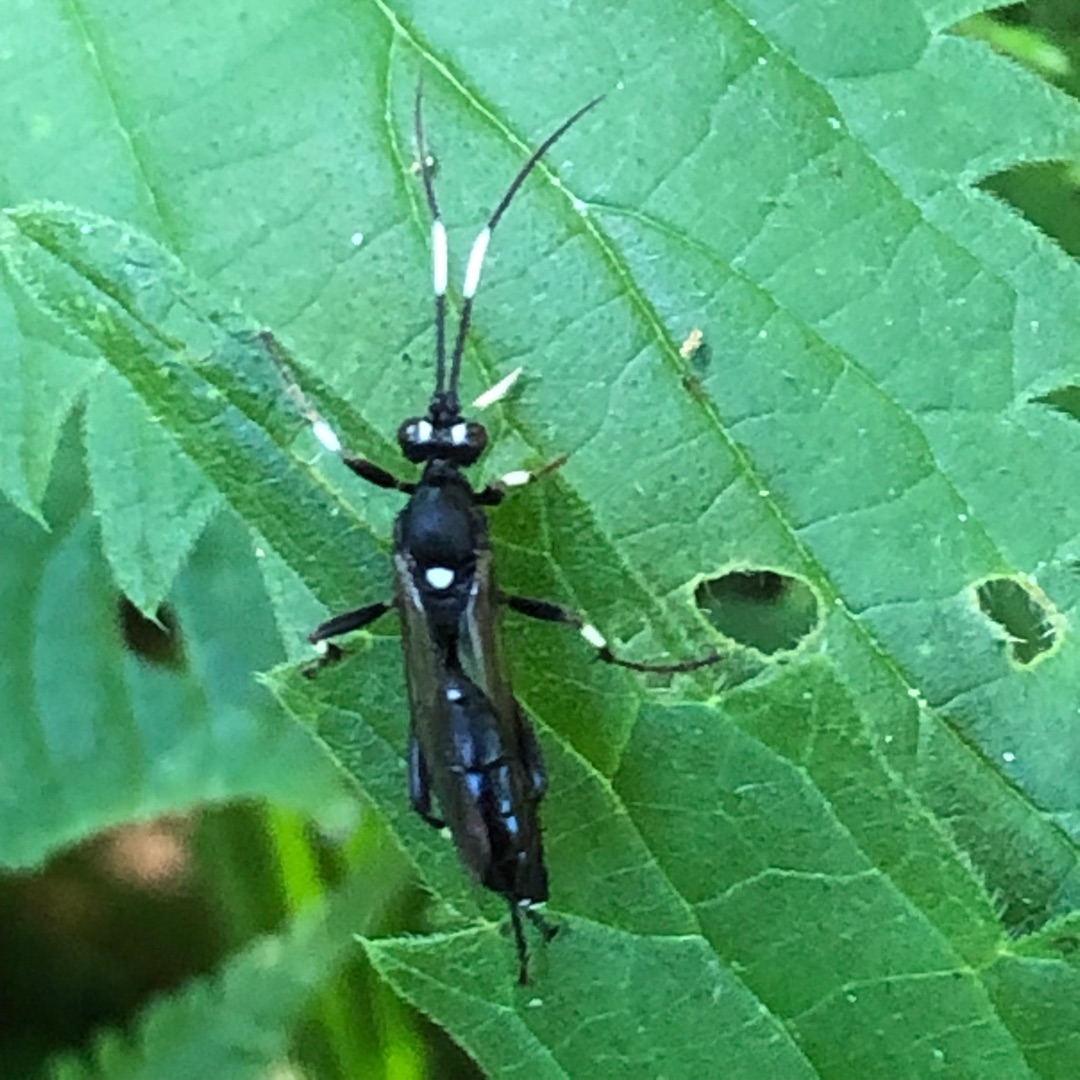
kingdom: Animalia
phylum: Arthropoda
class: Insecta
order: Hymenoptera
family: Ichneumonidae
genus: Achaius
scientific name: Achaius oratorius
